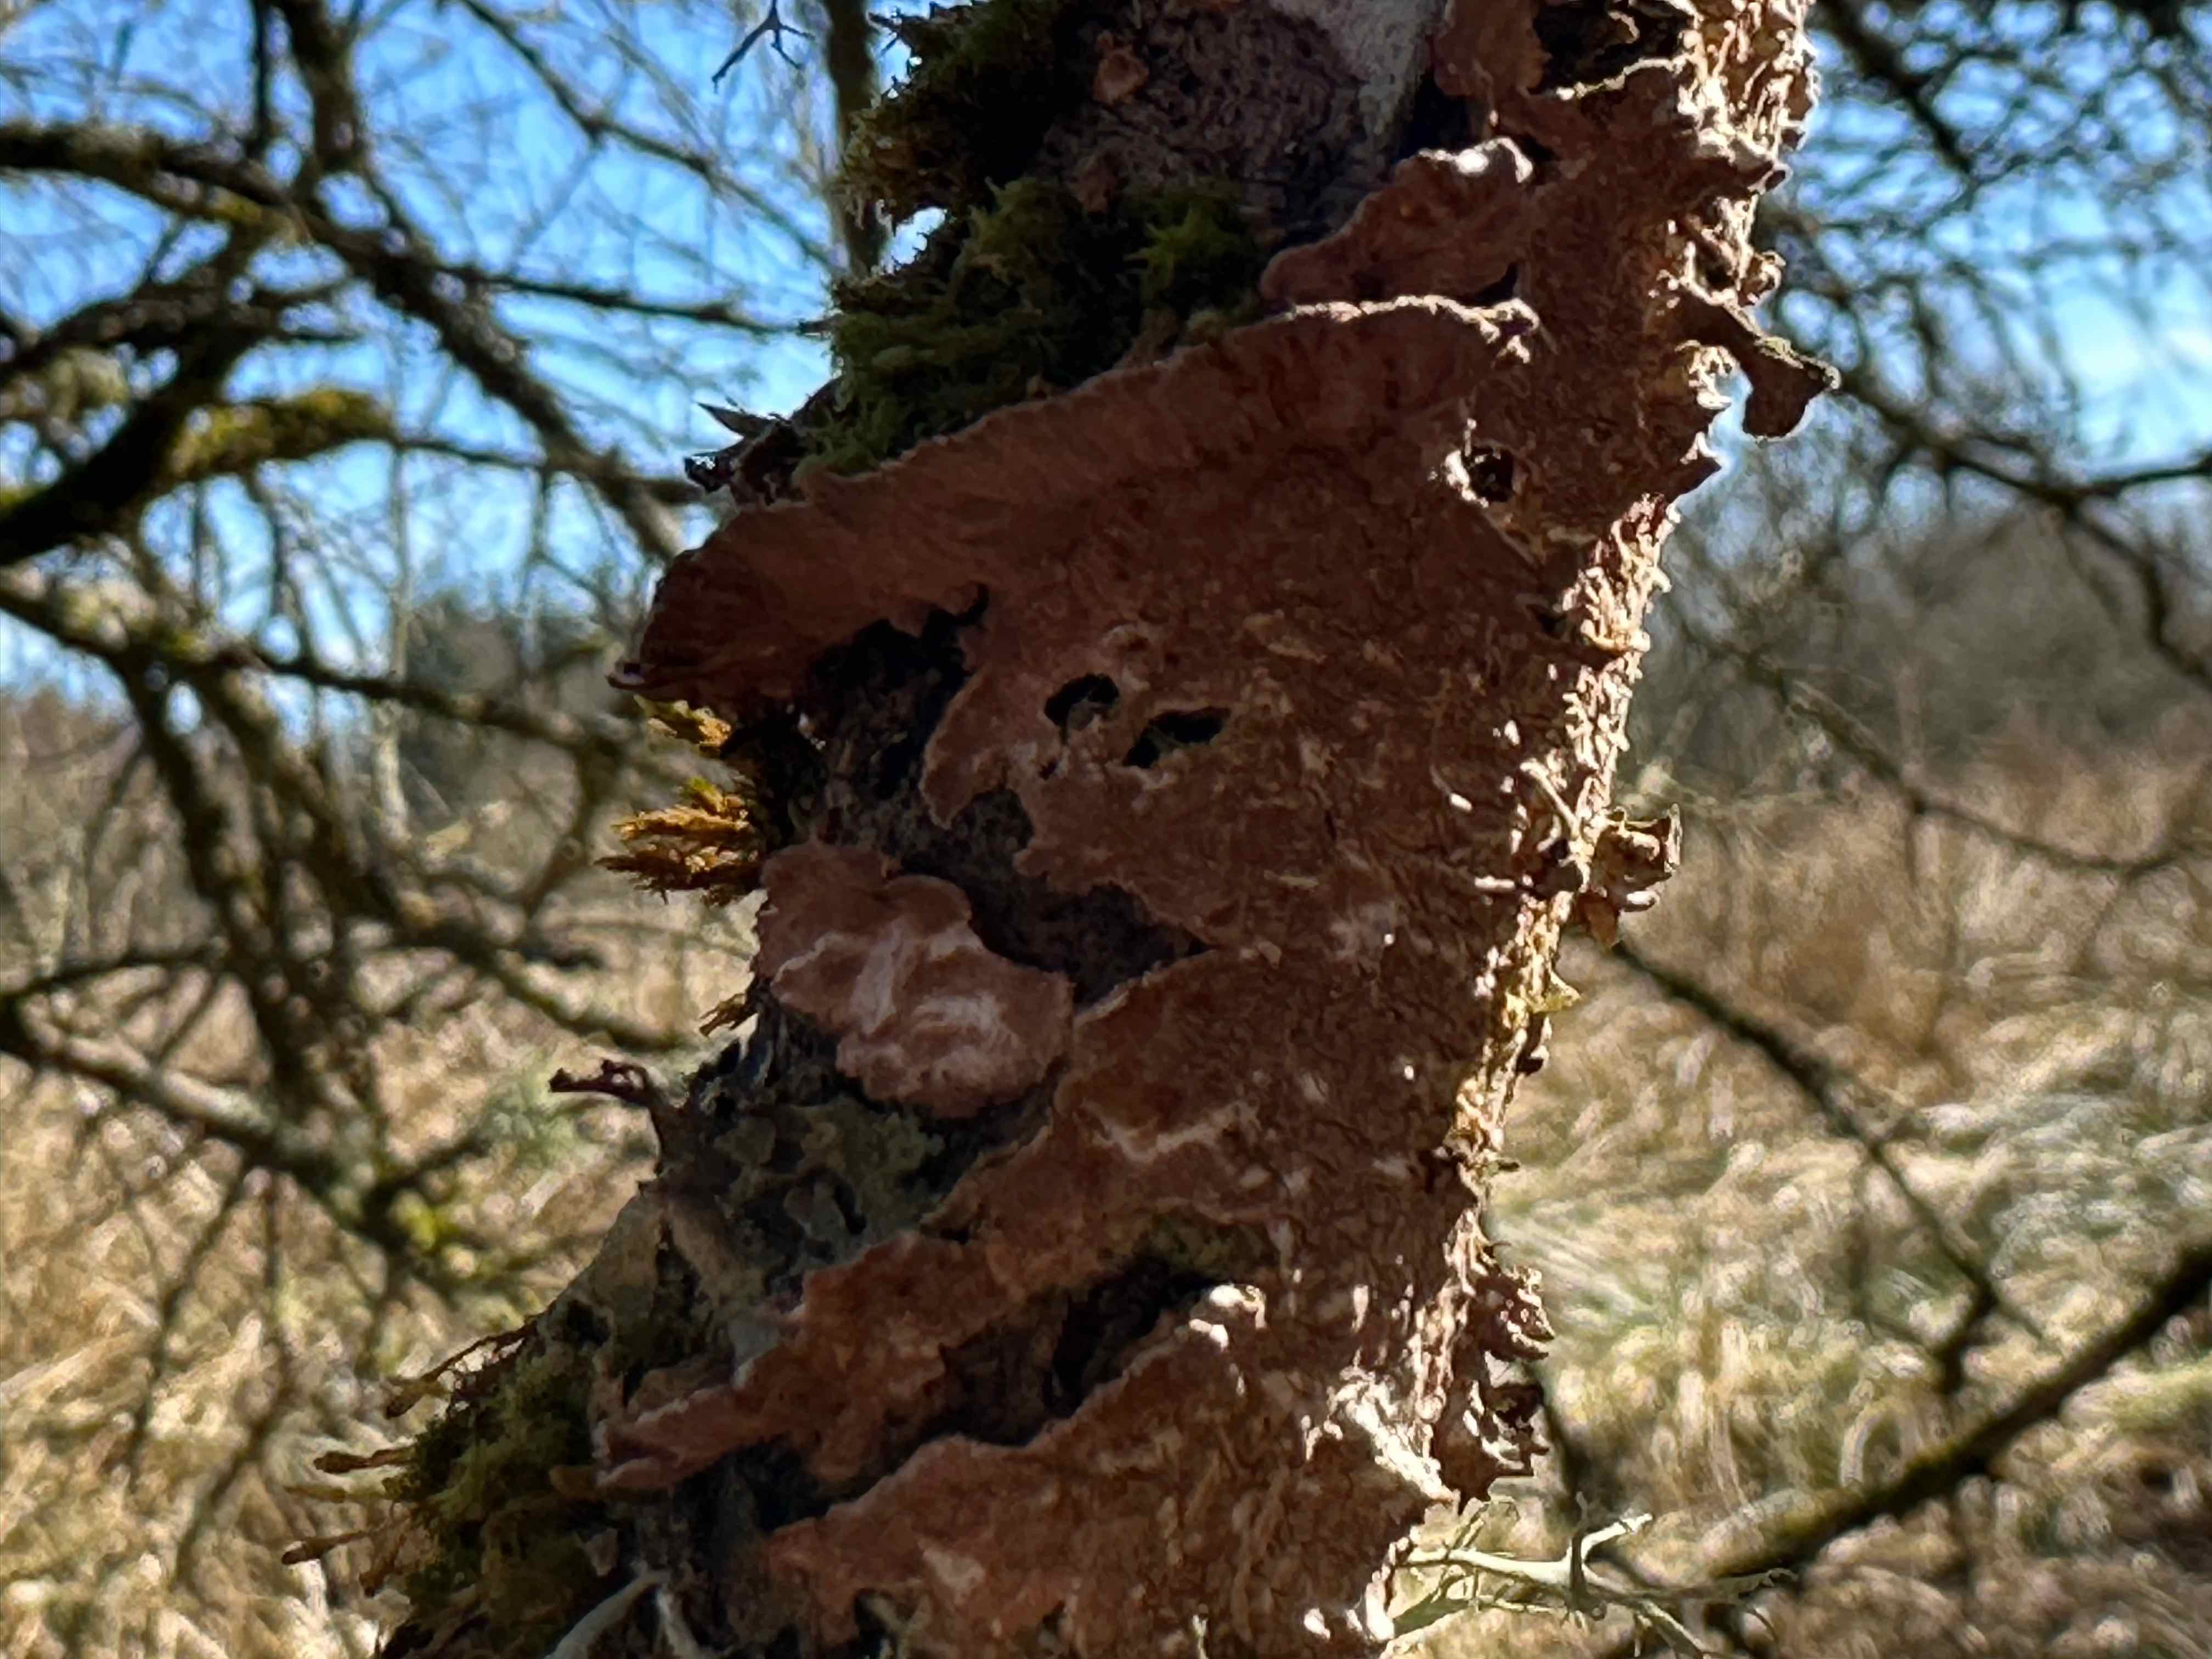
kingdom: Fungi
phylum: Basidiomycota
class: Agaricomycetes
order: Hymenochaetales
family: Hymenochaetaceae
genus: Hydnoporia
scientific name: Hydnoporia tabacina
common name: tobaksbrun ruslædersvamp
